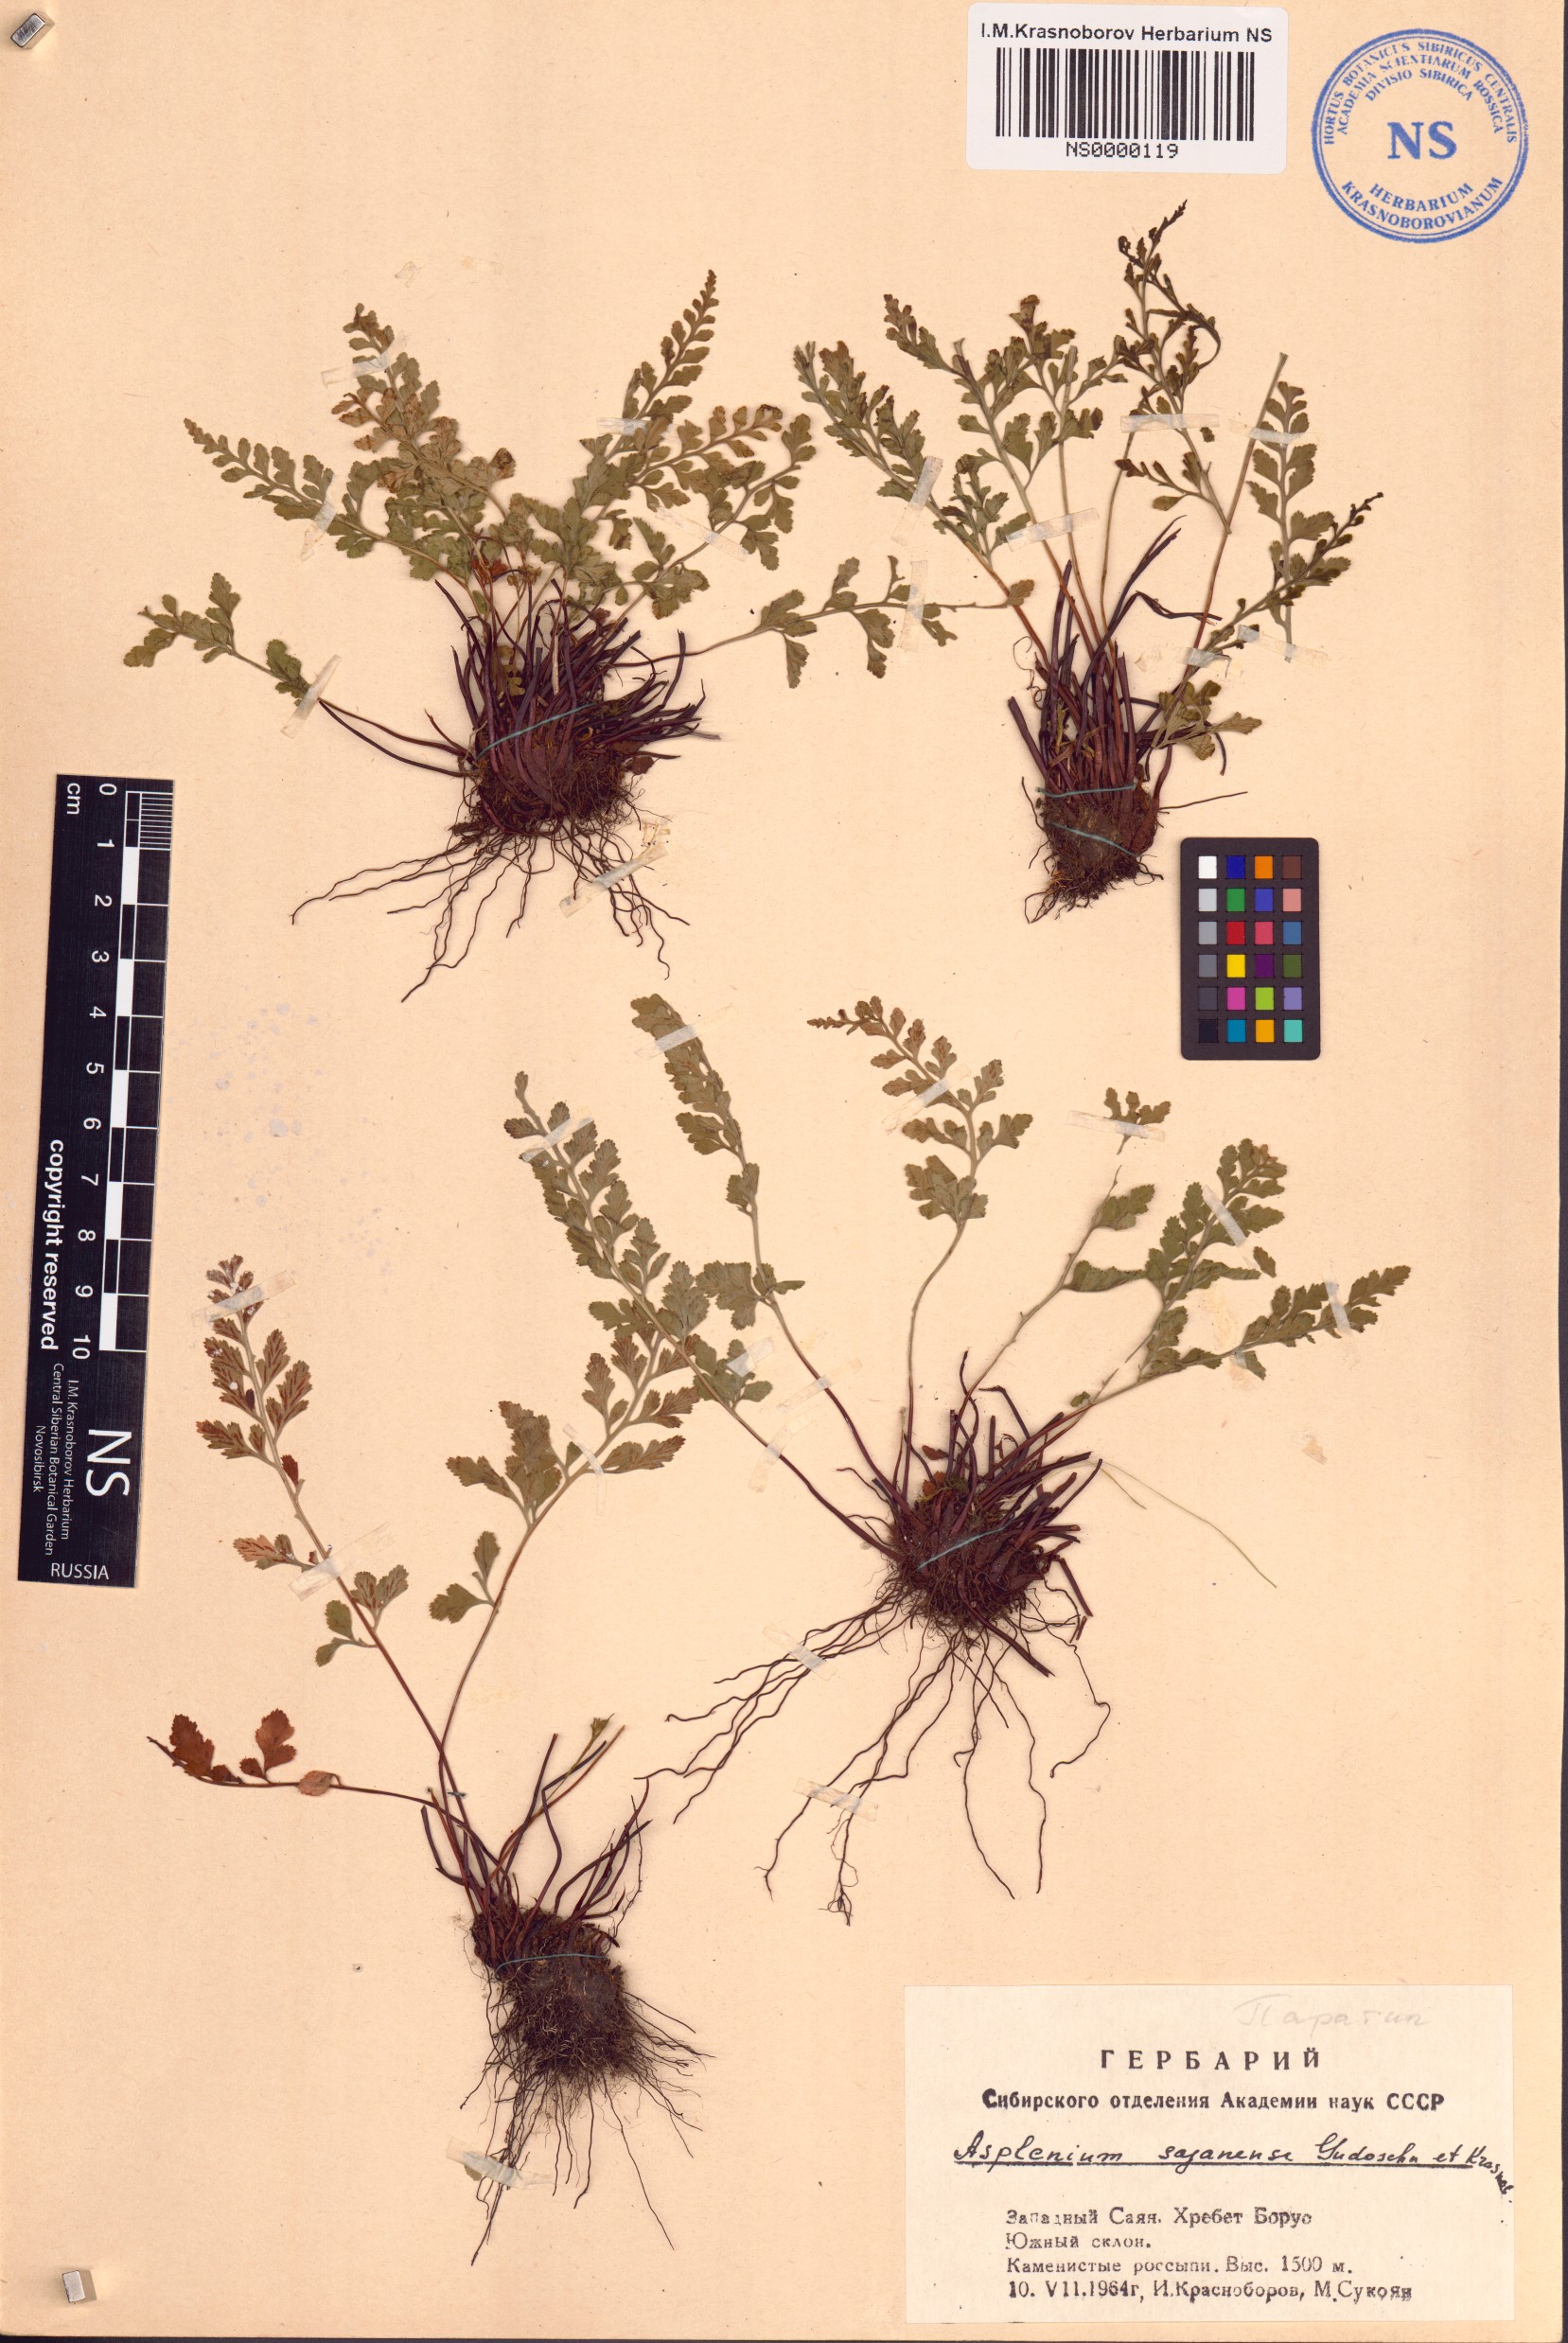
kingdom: Plantae
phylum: Tracheophyta
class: Polypodiopsida
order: Polypodiales
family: Aspleniaceae
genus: Asplenium
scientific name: Asplenium adiantum-nigrum
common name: Black spleenwort
